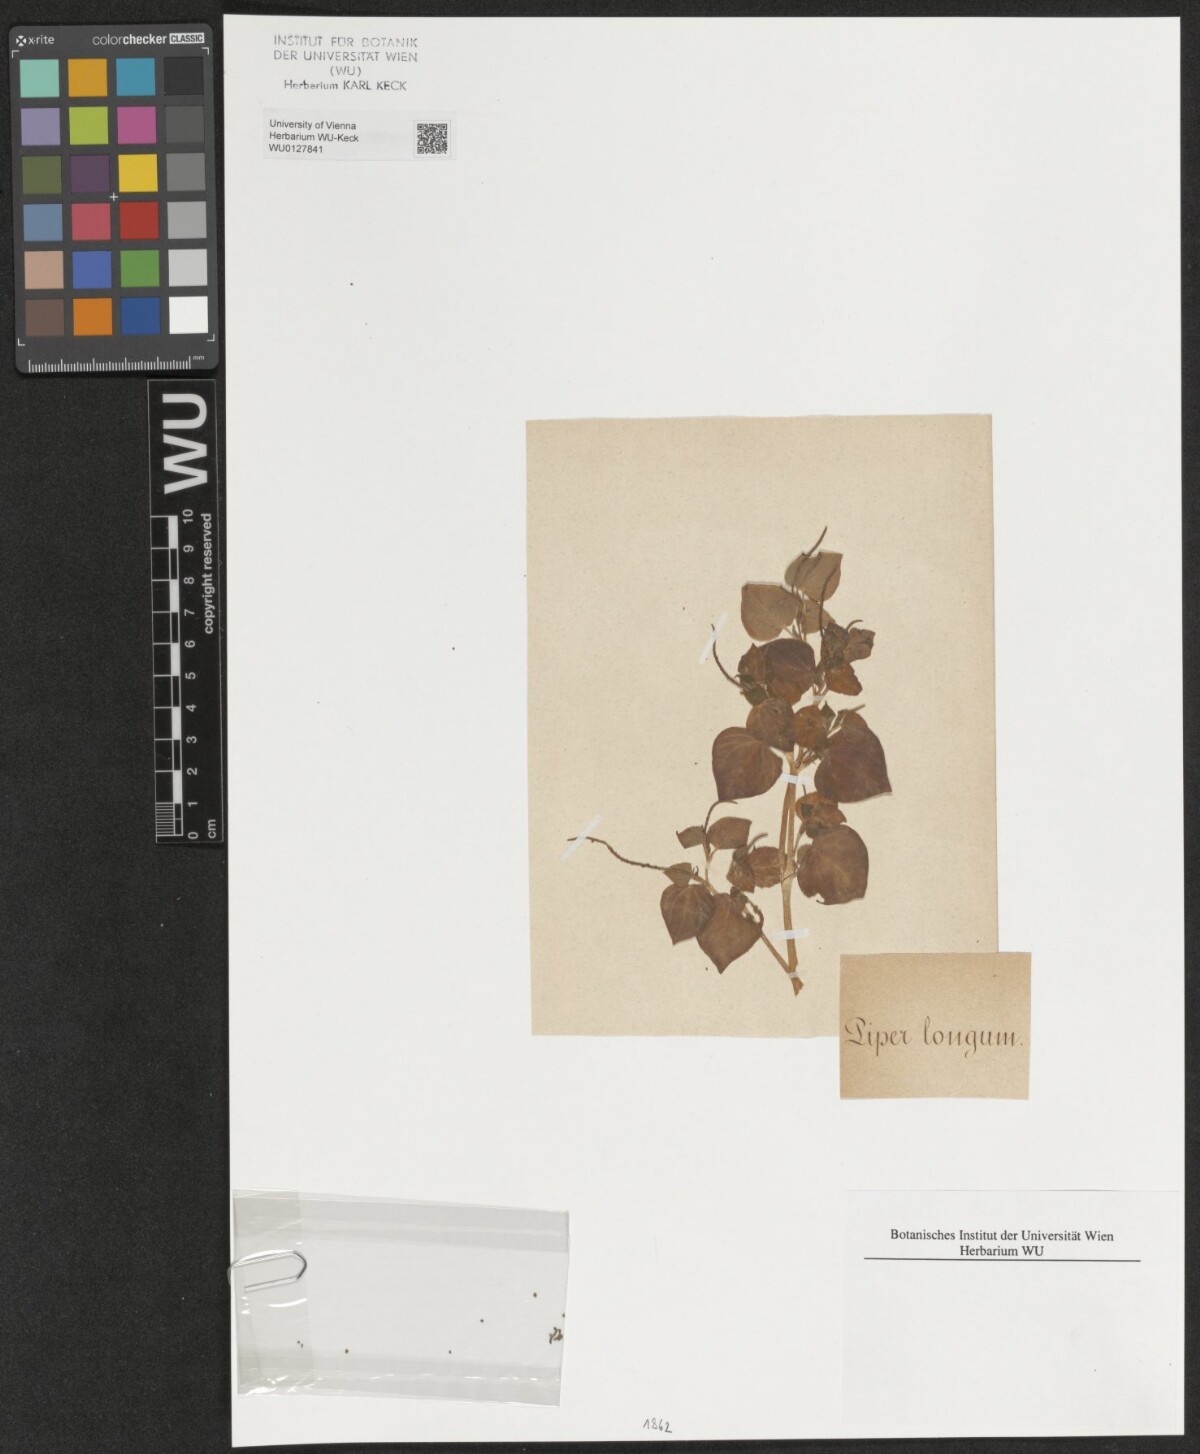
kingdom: Plantae
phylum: Tracheophyta
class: Magnoliopsida
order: Piperales
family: Piperaceae
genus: Peperomia
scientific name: Peperomia pellucida
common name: Man to man
